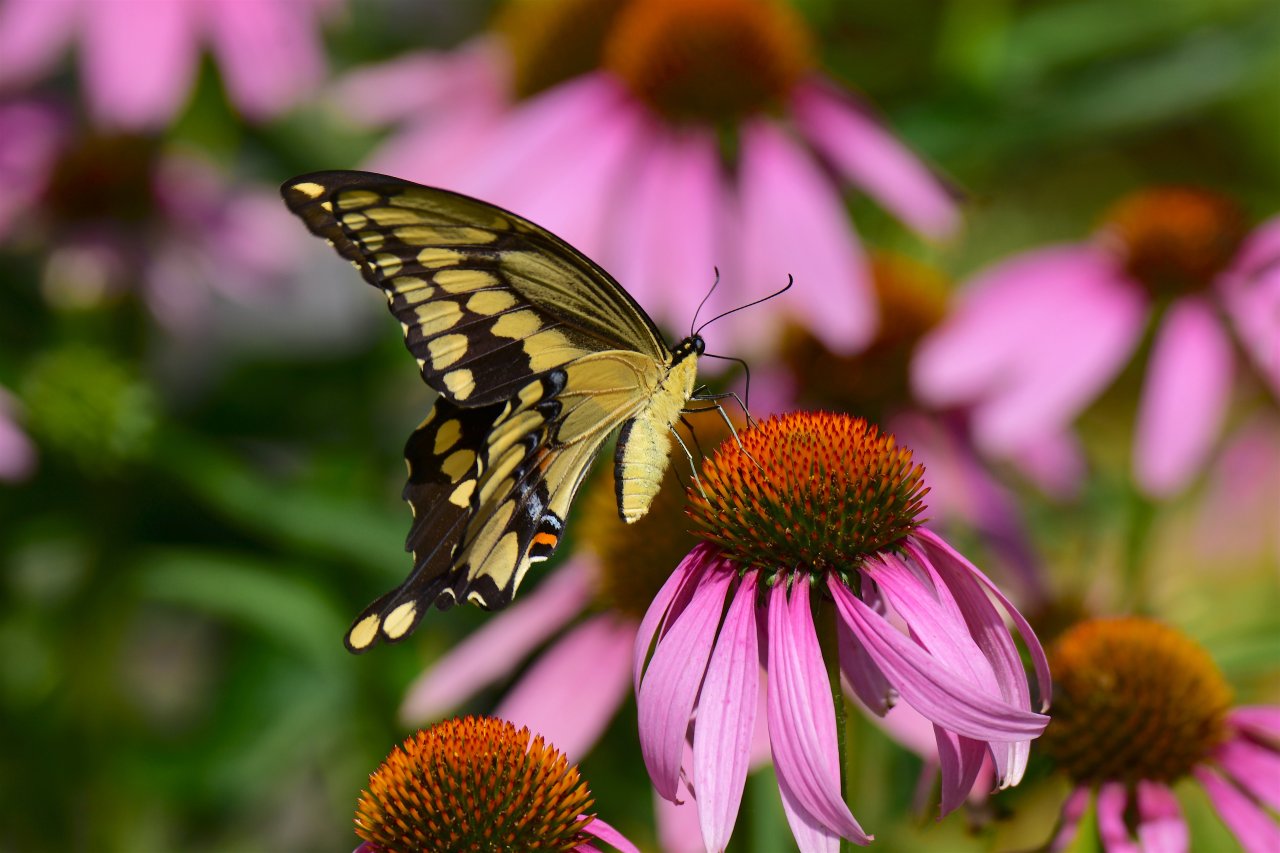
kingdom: Animalia
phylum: Arthropoda
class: Insecta
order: Lepidoptera
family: Papilionidae
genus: Papilio
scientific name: Papilio cresphontes
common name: Eastern Giant Swallowtail
